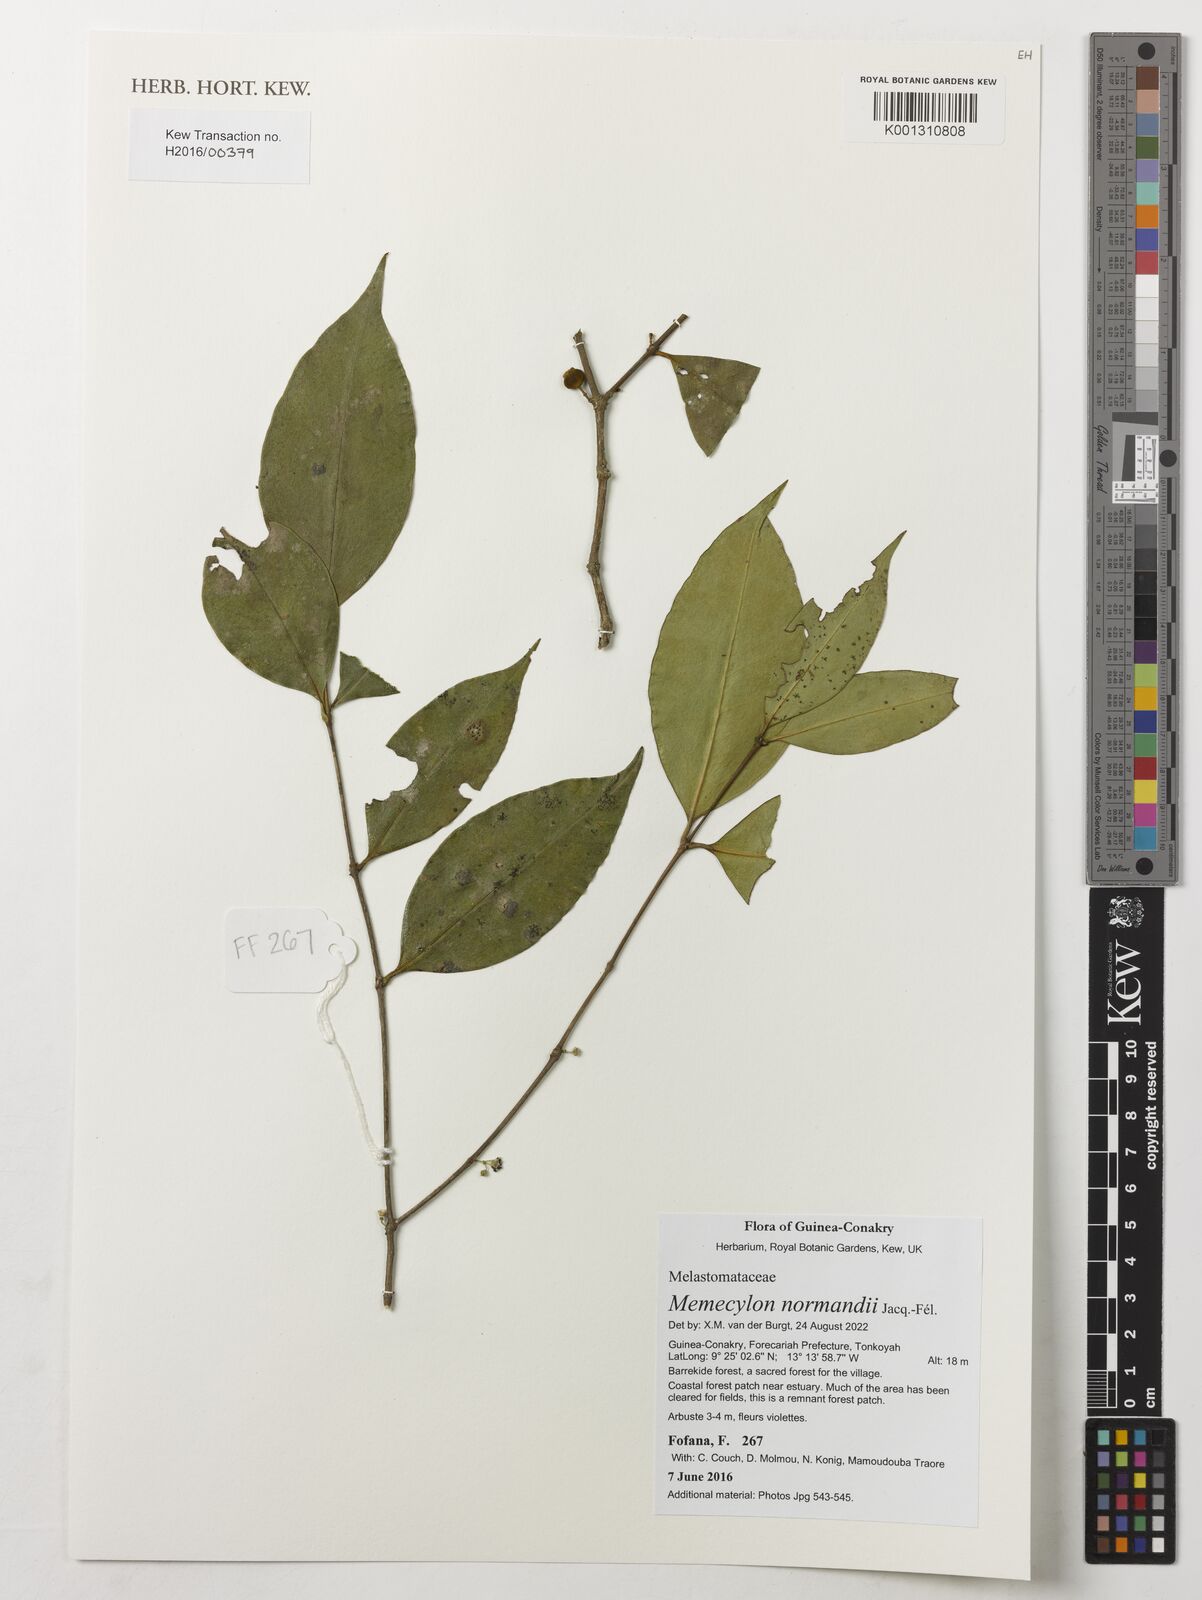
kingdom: Plantae
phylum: Tracheophyta
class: Magnoliopsida
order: Myrtales
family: Melastomataceae
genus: Memecylon
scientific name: Memecylon normandii
